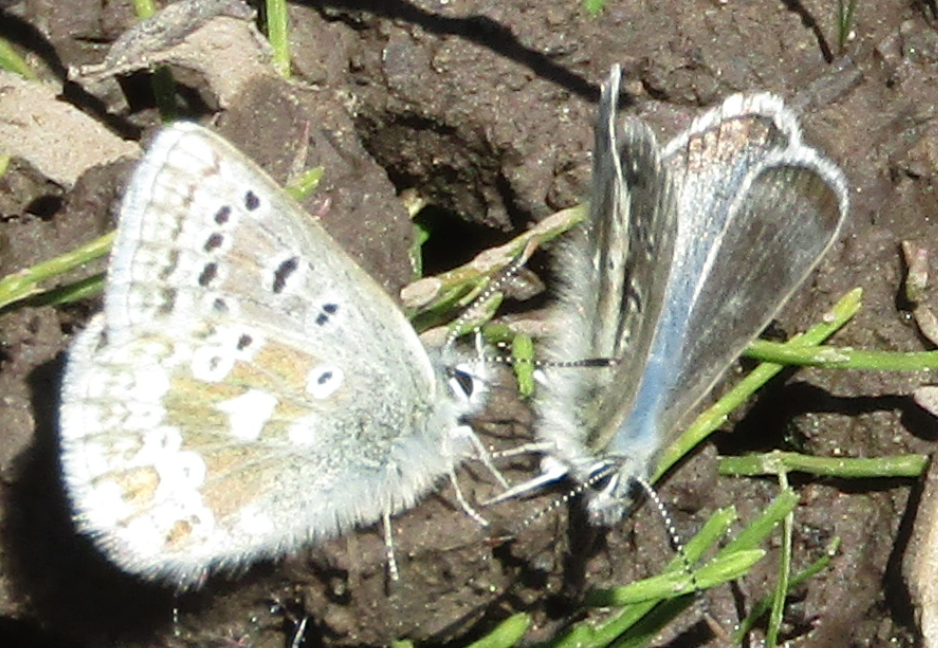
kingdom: Animalia
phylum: Arthropoda
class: Insecta
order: Lepidoptera
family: Lycaenidae
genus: Agriades
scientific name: Agriades glandon
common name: Arctic Blue
